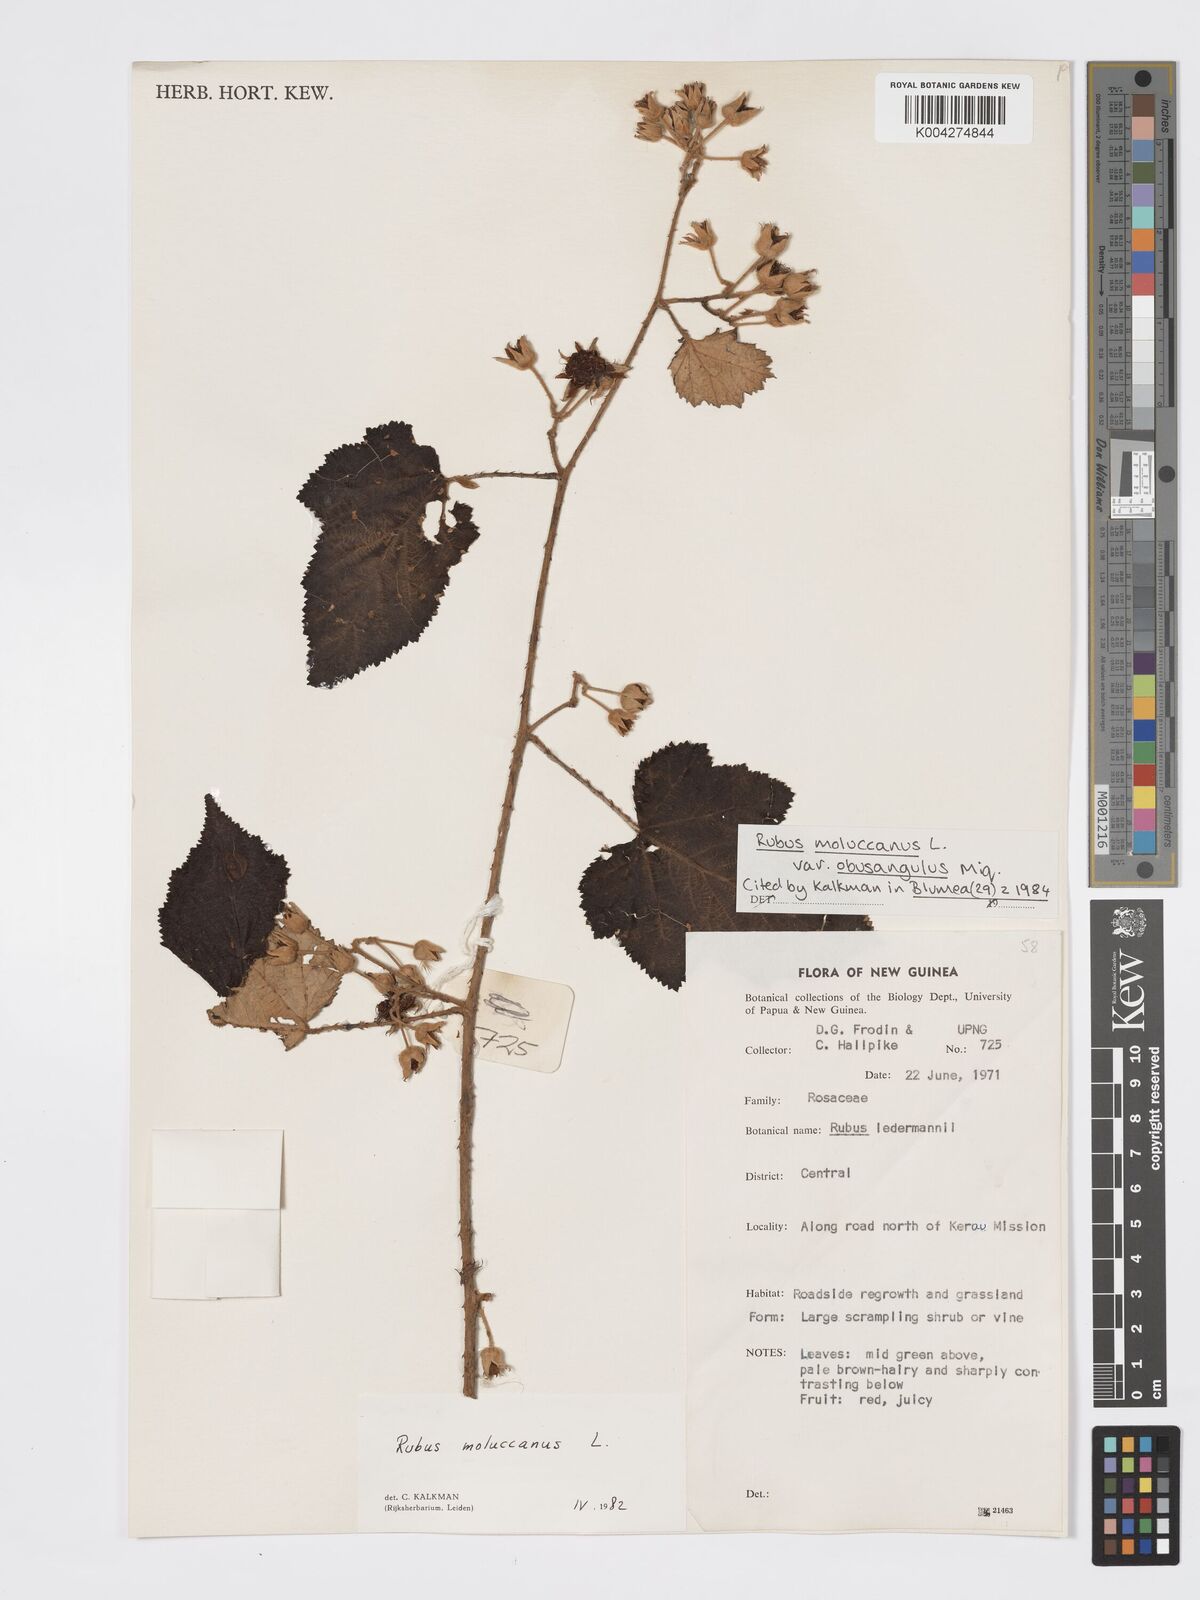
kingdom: Plantae
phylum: Tracheophyta
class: Magnoliopsida
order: Rosales
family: Rosaceae
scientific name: Rosaceae
